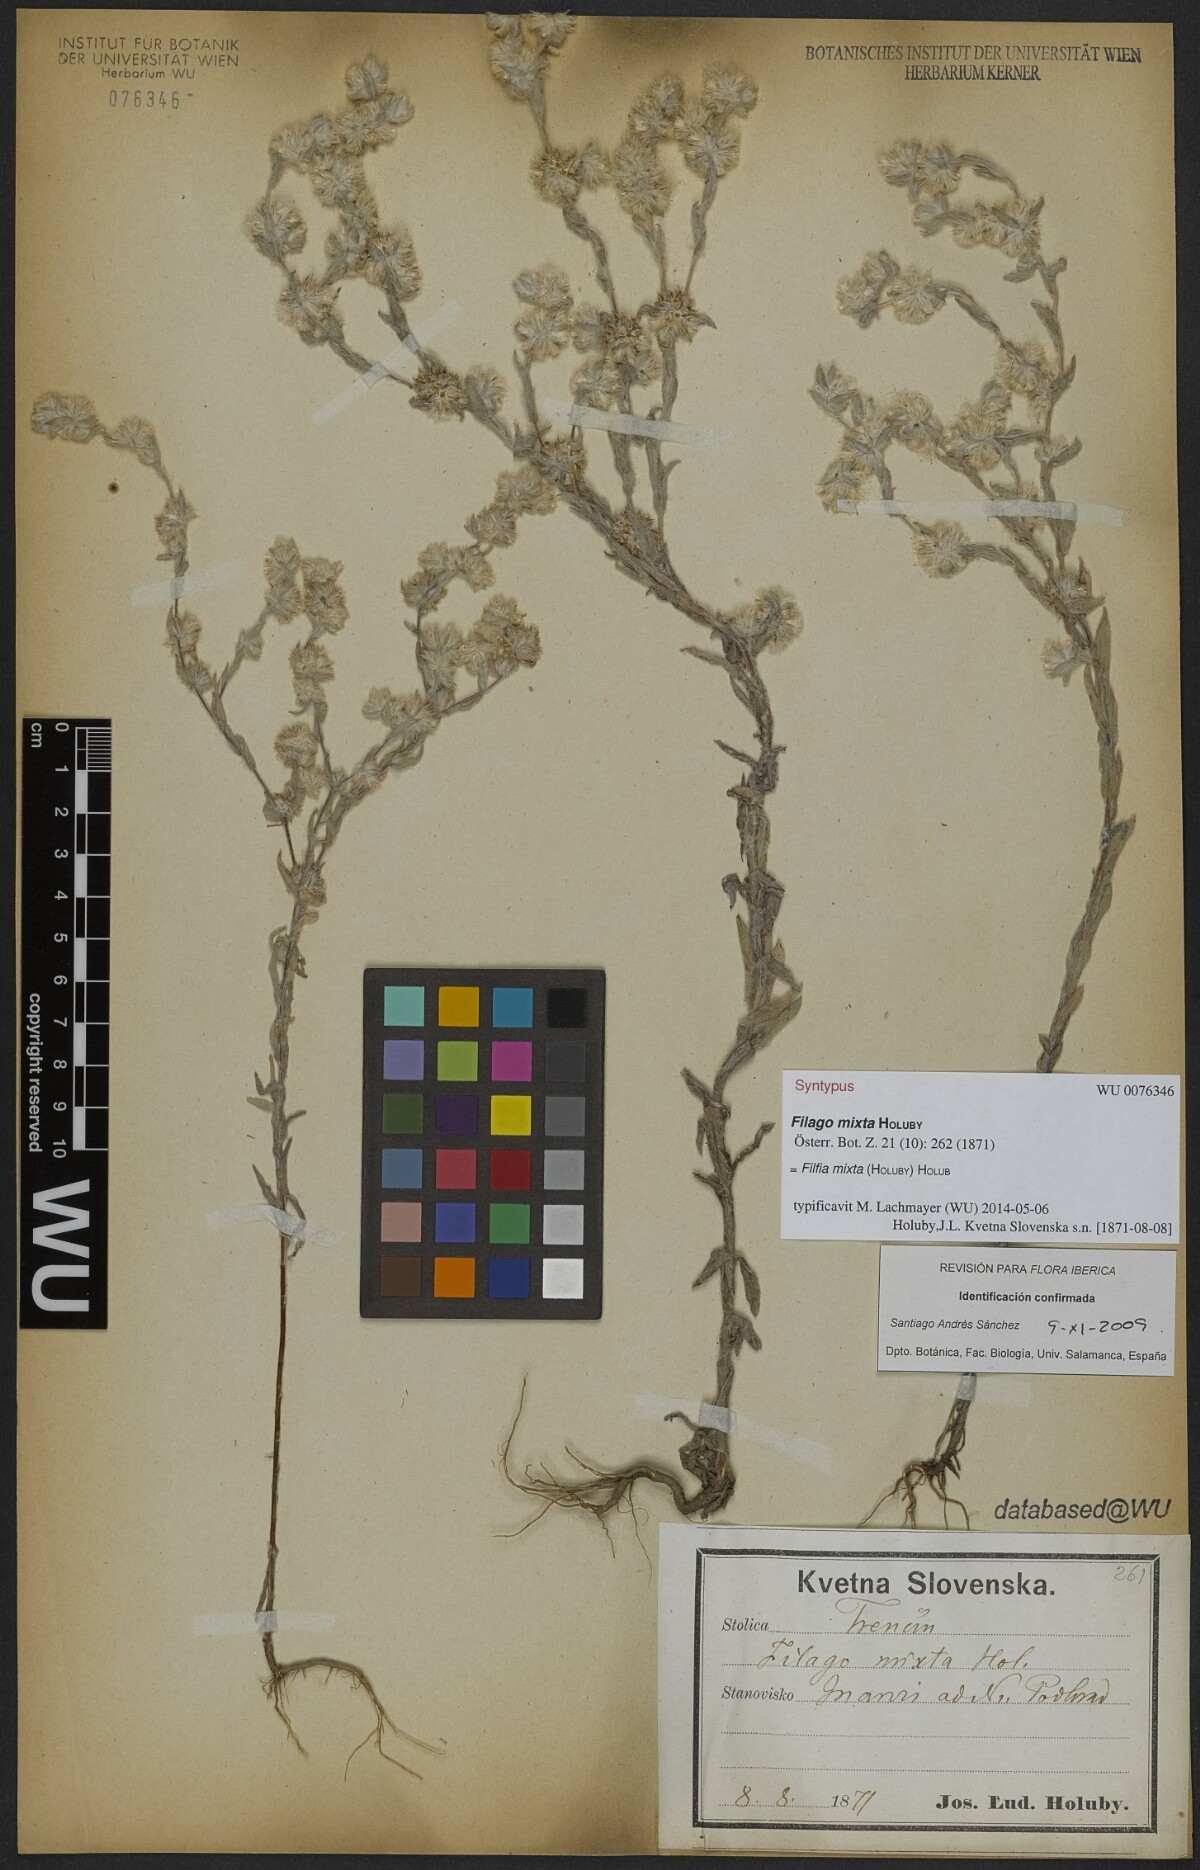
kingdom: Plantae
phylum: Tracheophyta
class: Magnoliopsida
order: Asterales
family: Asteraceae
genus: Filago
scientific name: Filago mixta
